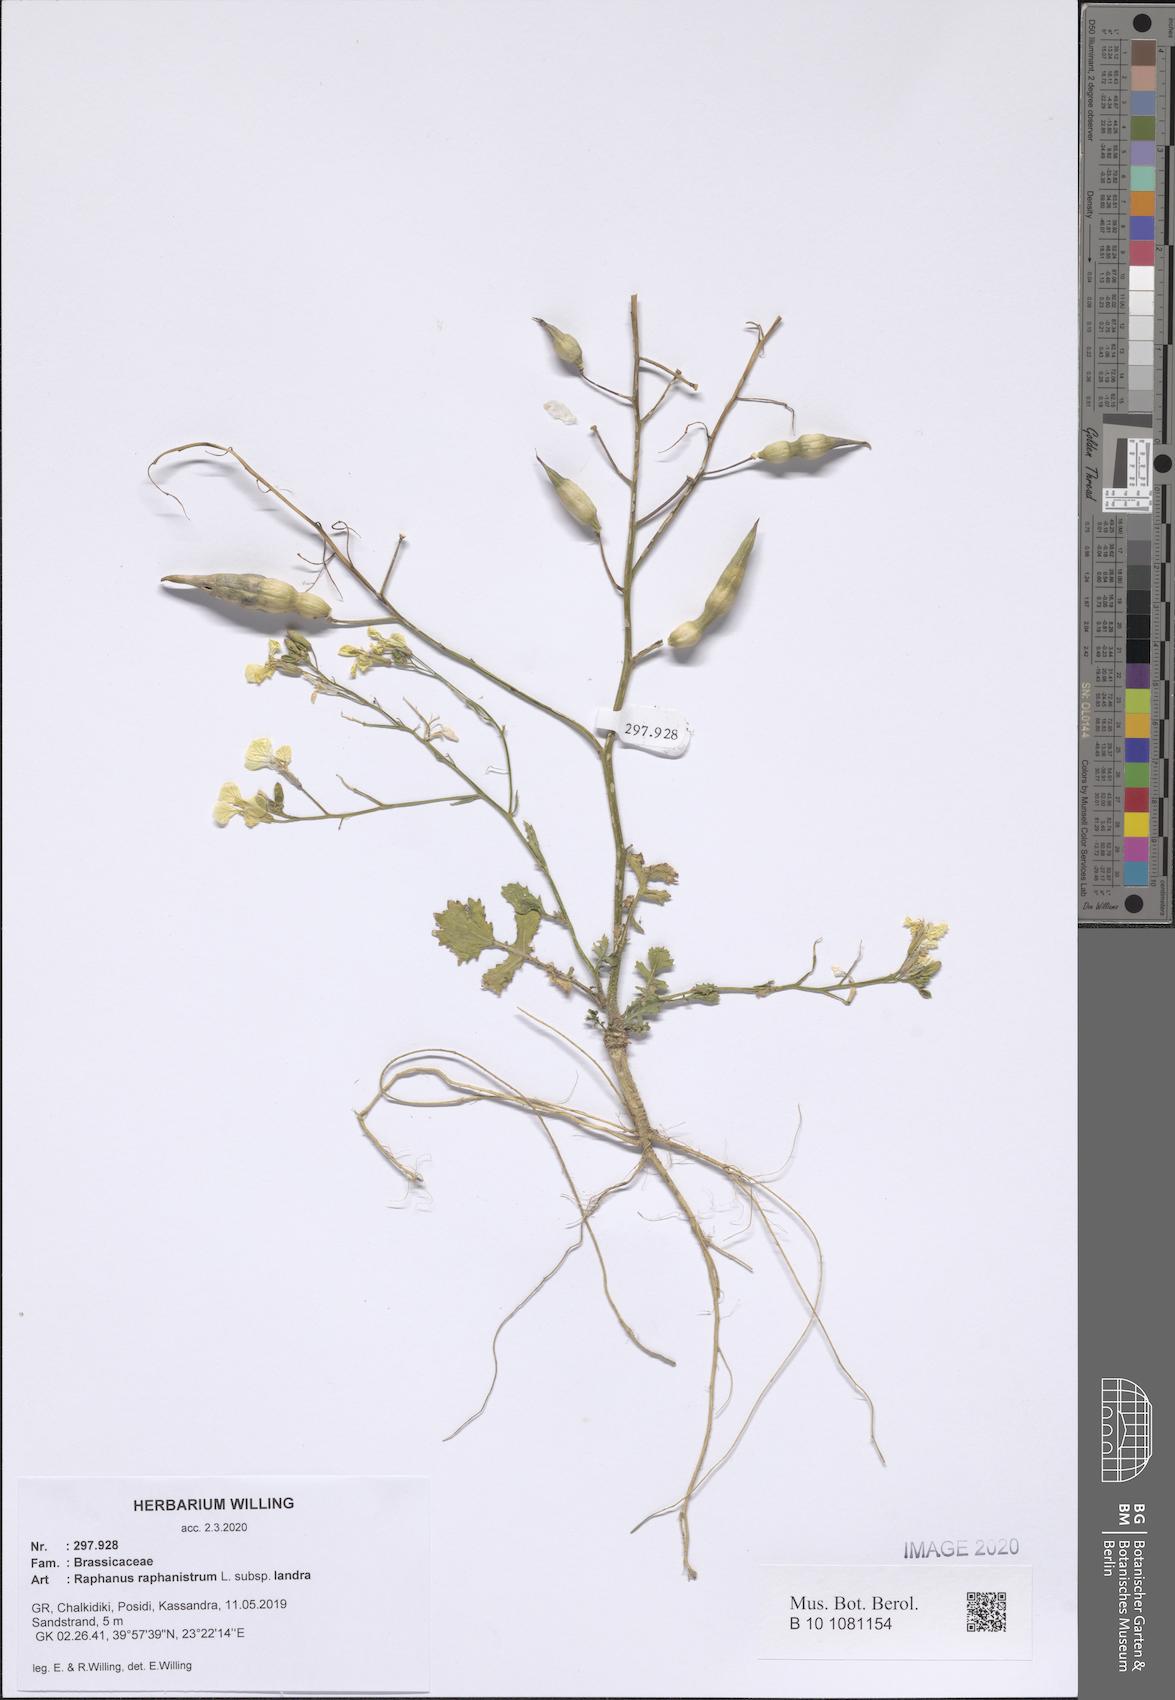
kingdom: Plantae
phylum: Tracheophyta
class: Magnoliopsida
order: Brassicales
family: Brassicaceae
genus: Raphanus
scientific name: Raphanus raphanistrum
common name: Wild radish
